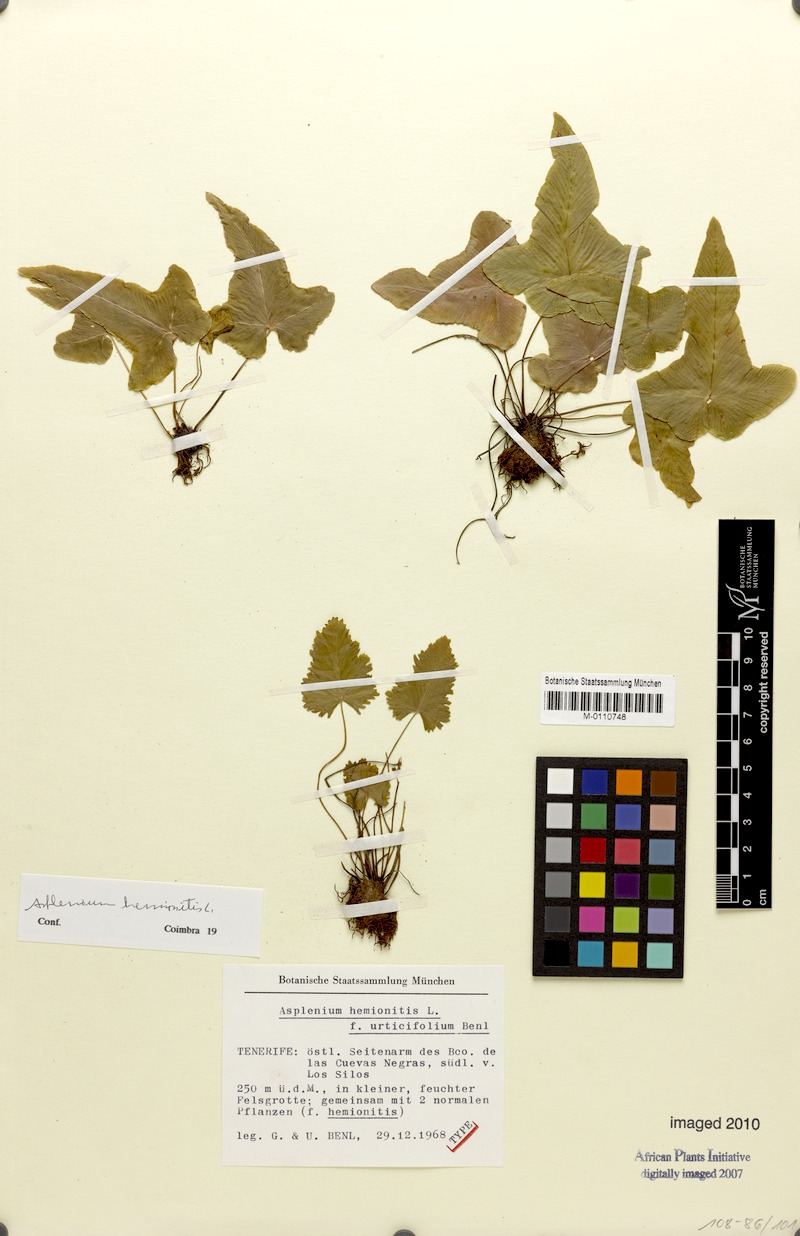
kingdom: Plantae
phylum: Tracheophyta
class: Polypodiopsida
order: Polypodiales
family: Aspleniaceae
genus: Asplenium
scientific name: Asplenium hemionitis
